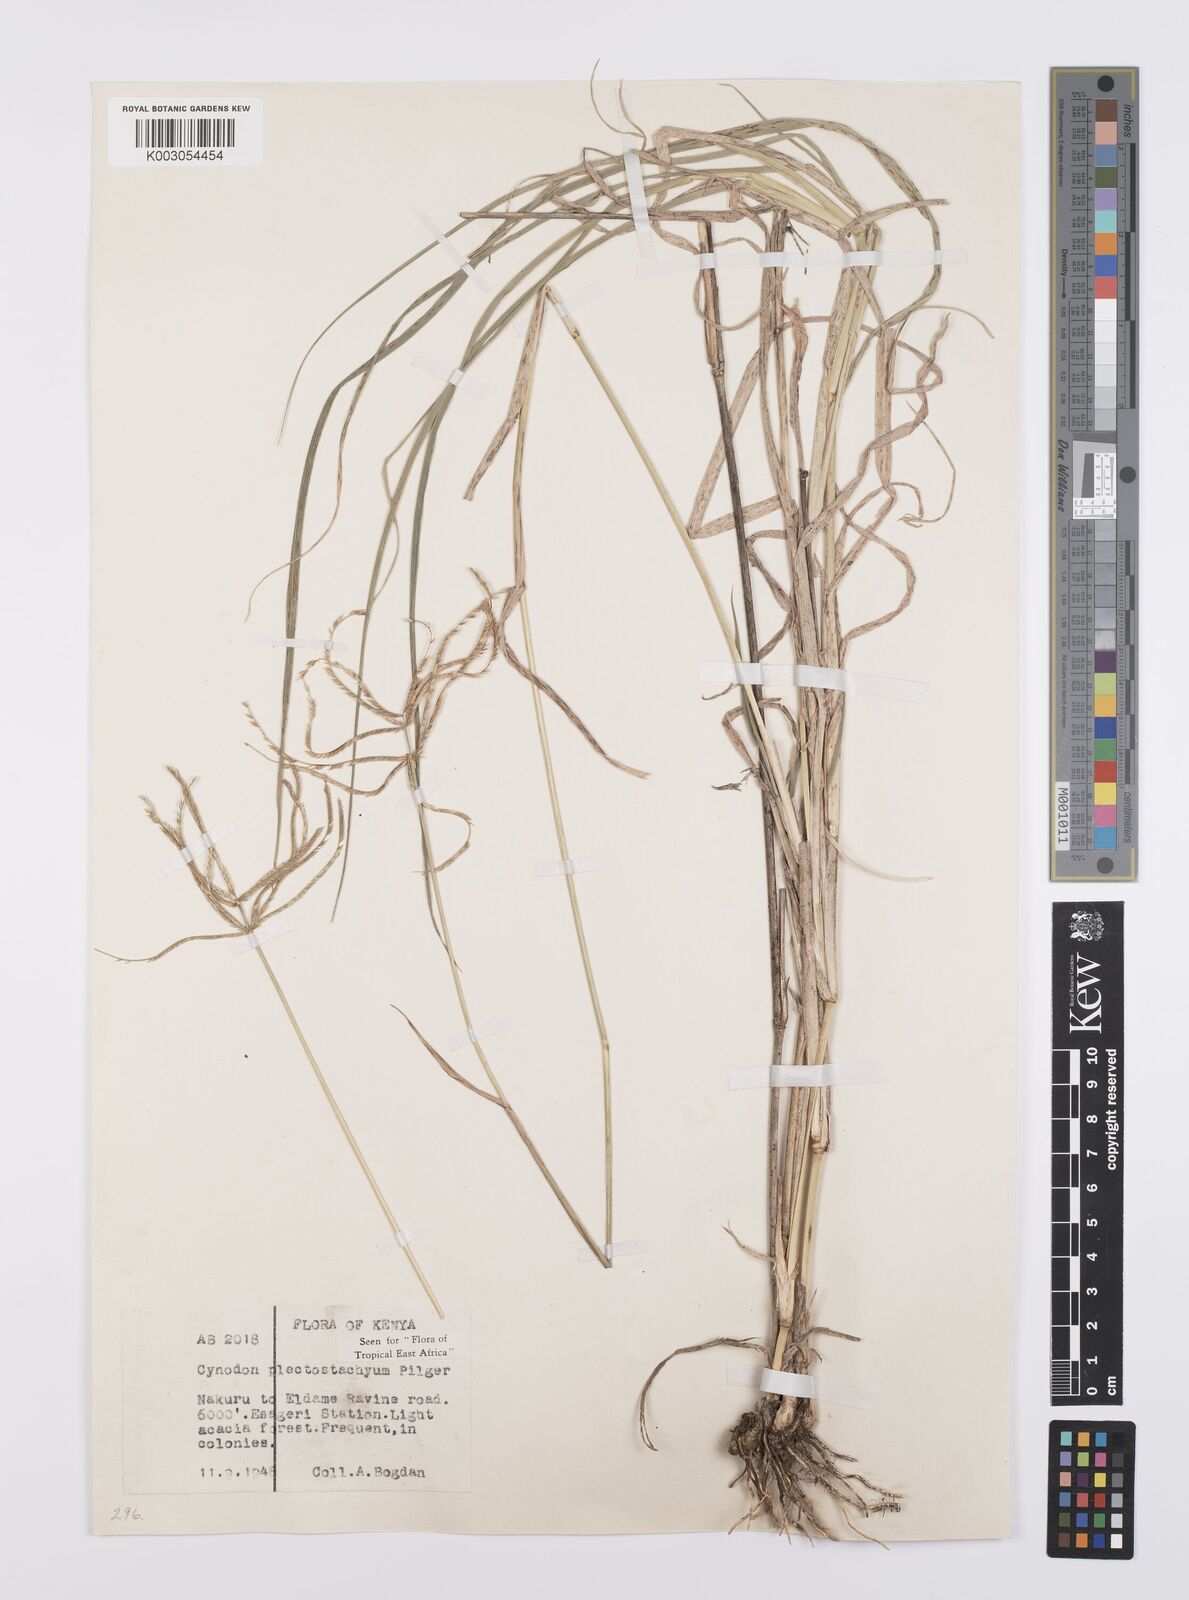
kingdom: Plantae
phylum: Tracheophyta
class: Liliopsida
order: Poales
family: Poaceae
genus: Cynodon
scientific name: Cynodon plectostachyus
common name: Stargrass
